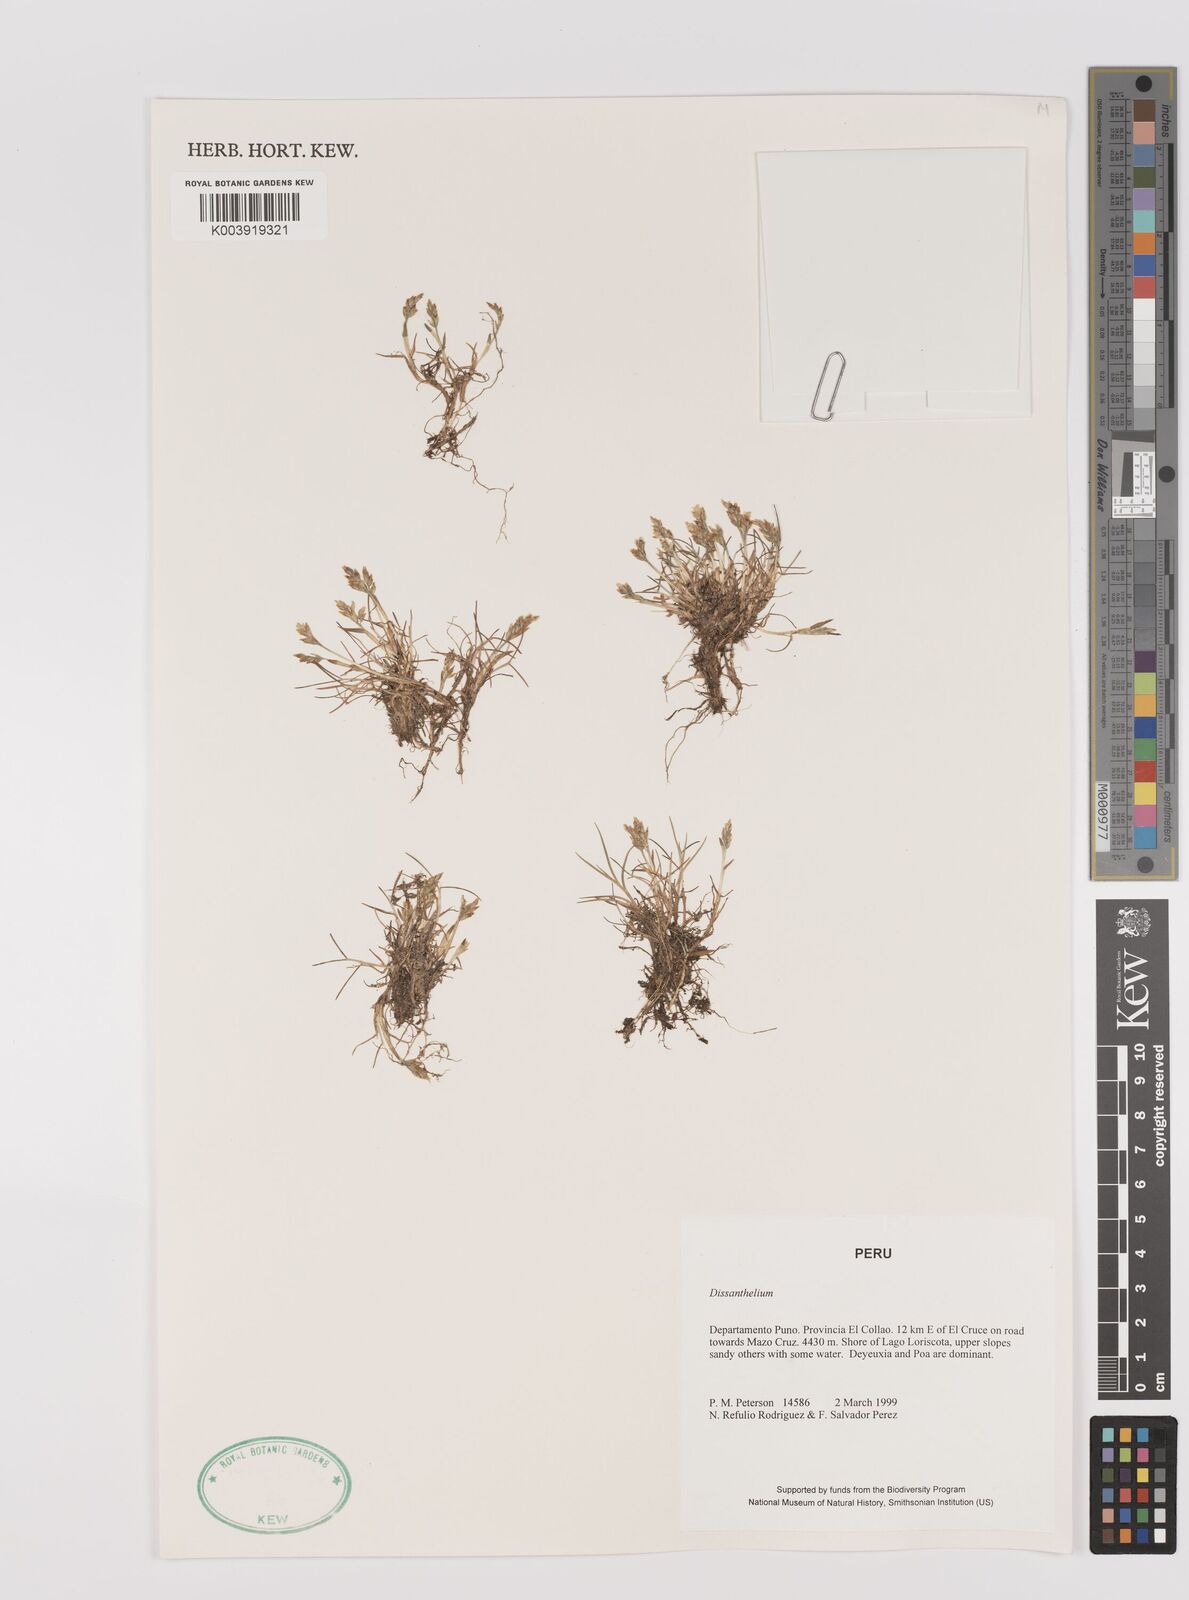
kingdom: Plantae
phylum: Tracheophyta
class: Liliopsida
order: Poales
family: Poaceae
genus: Poa
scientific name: Poa
